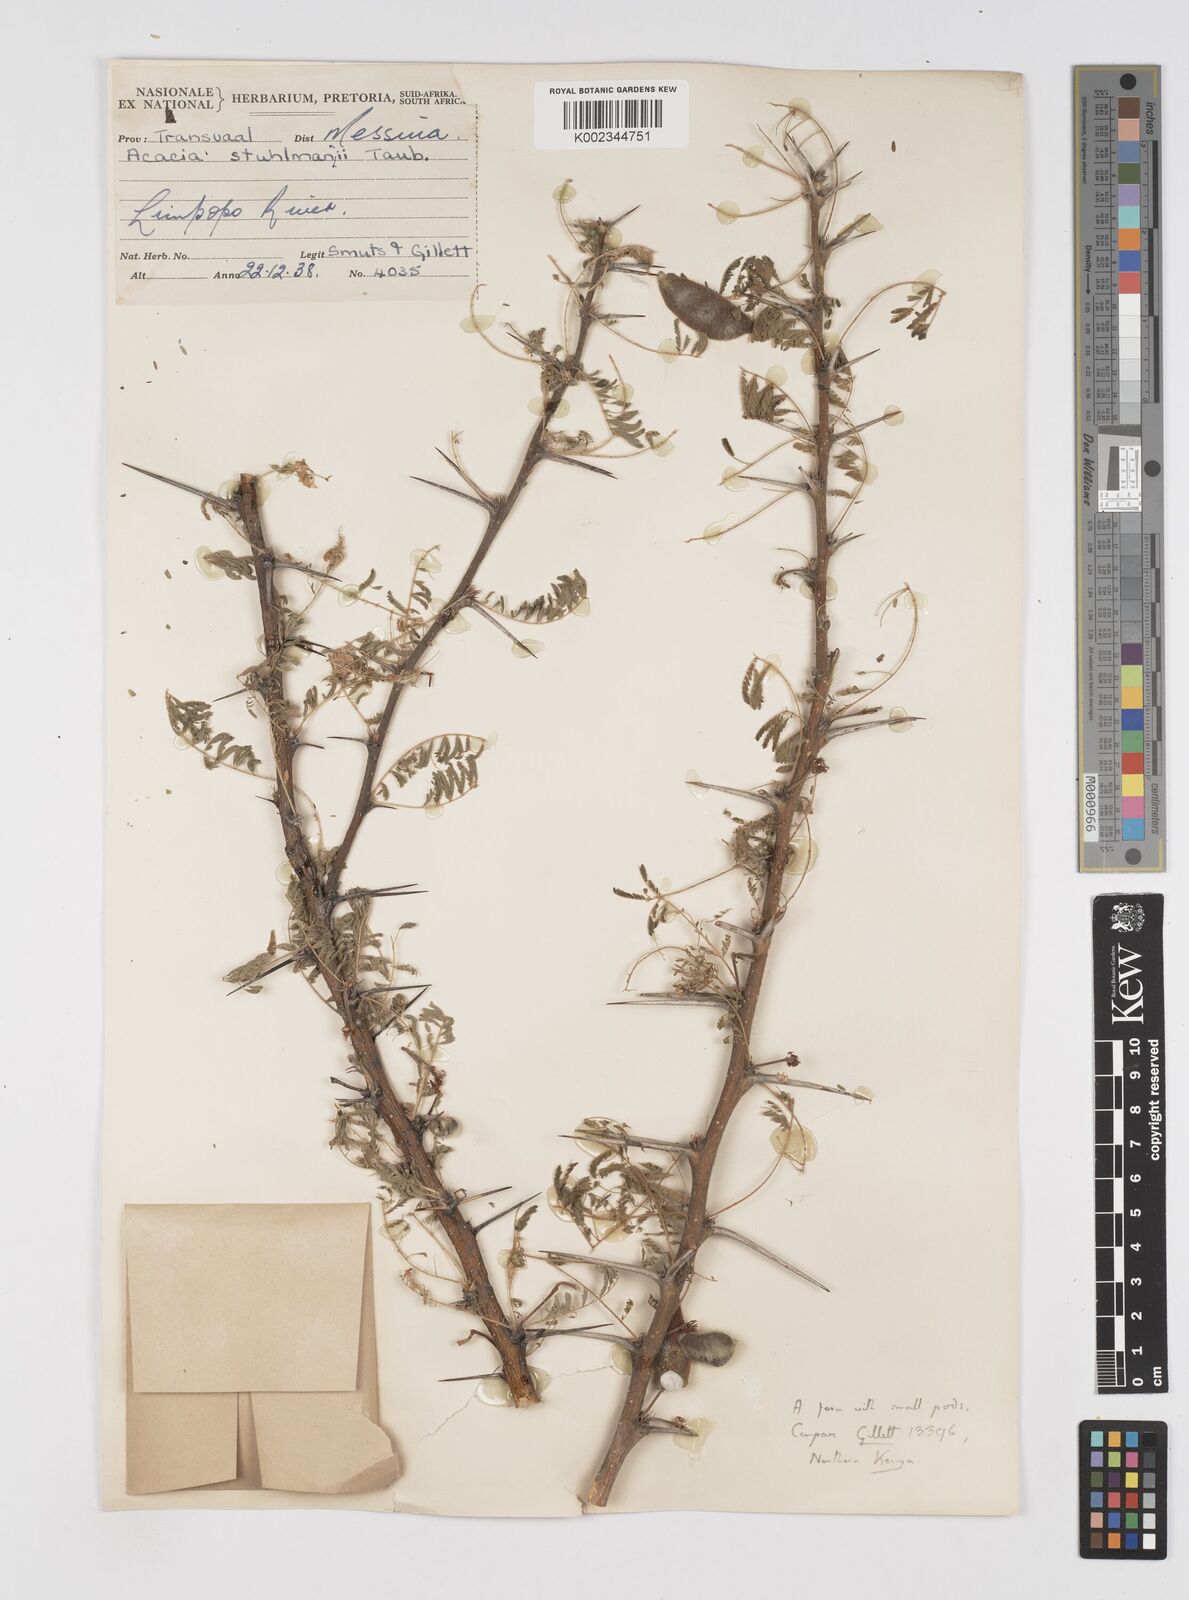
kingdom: Plantae
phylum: Tracheophyta
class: Magnoliopsida
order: Fabales
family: Fabaceae
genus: Vachellia
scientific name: Vachellia stuhlmannii
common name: Vlei thorn
